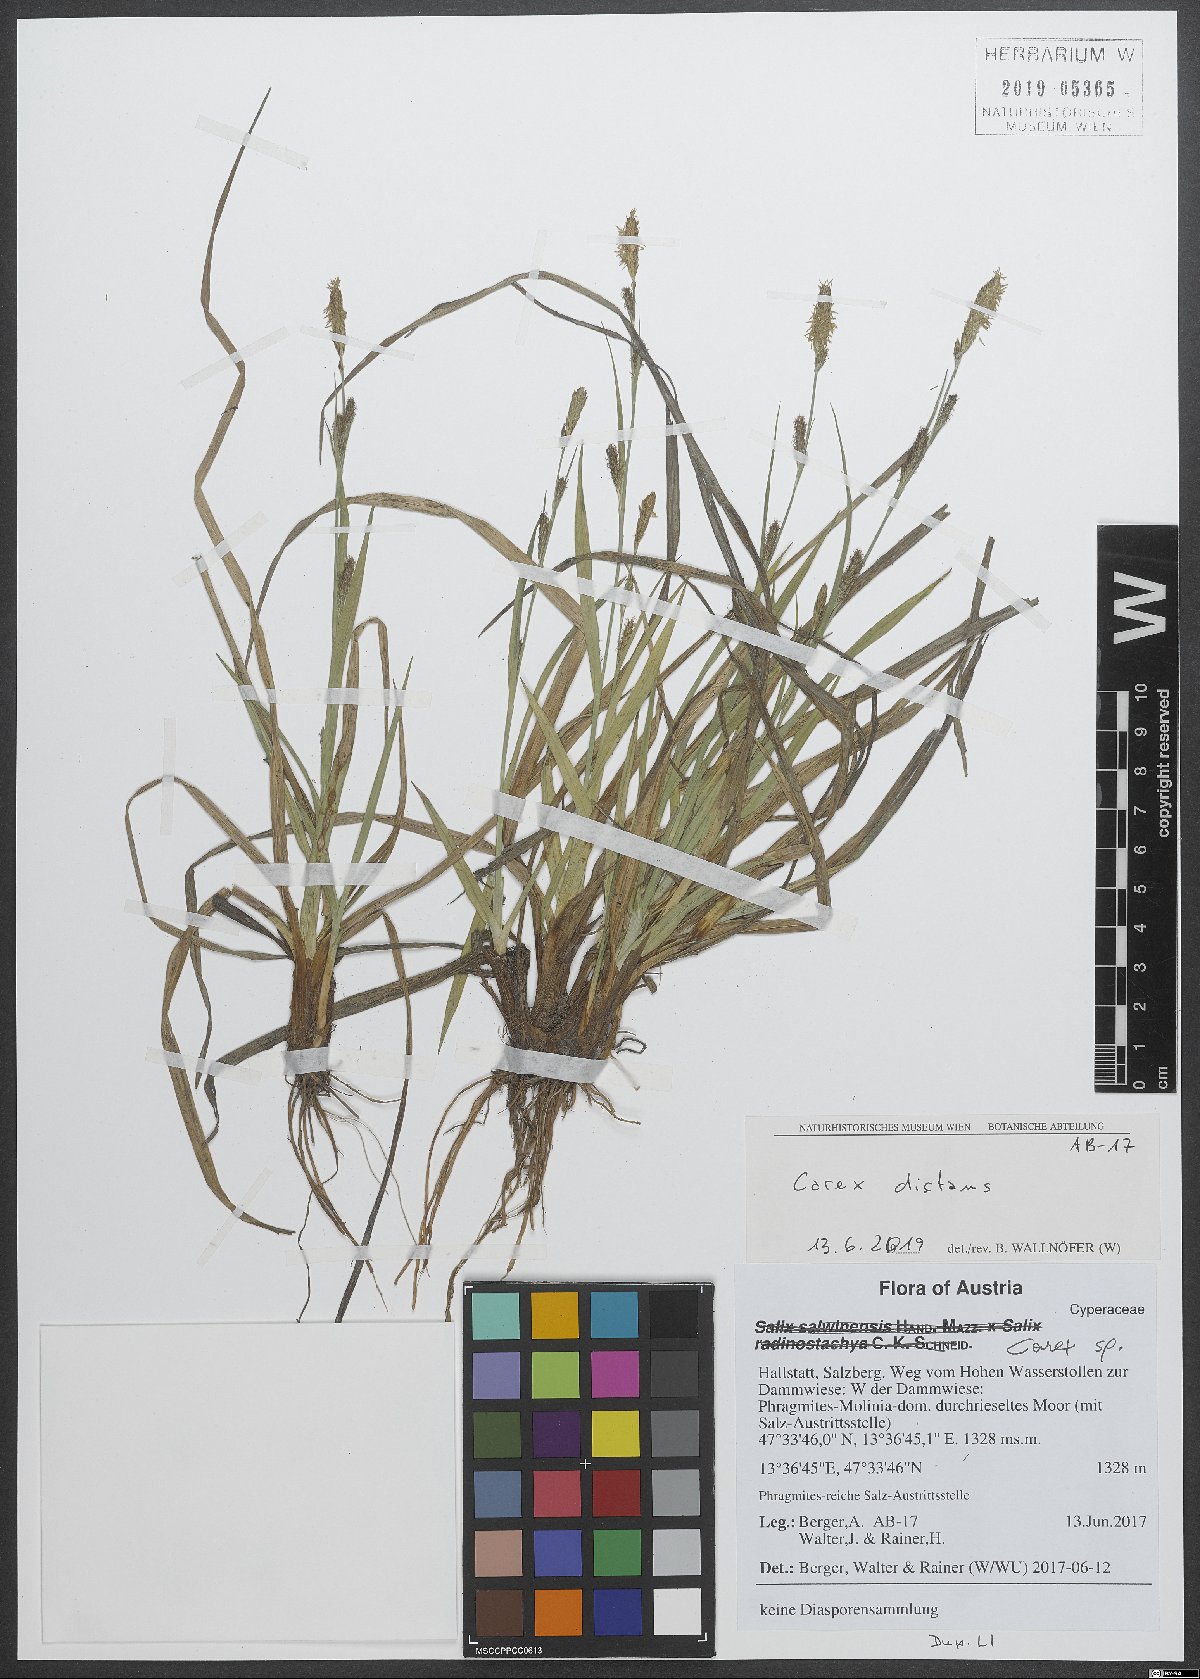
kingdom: Plantae
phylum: Tracheophyta
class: Liliopsida
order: Poales
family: Cyperaceae
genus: Carex
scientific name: Carex distans
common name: Distant sedge
